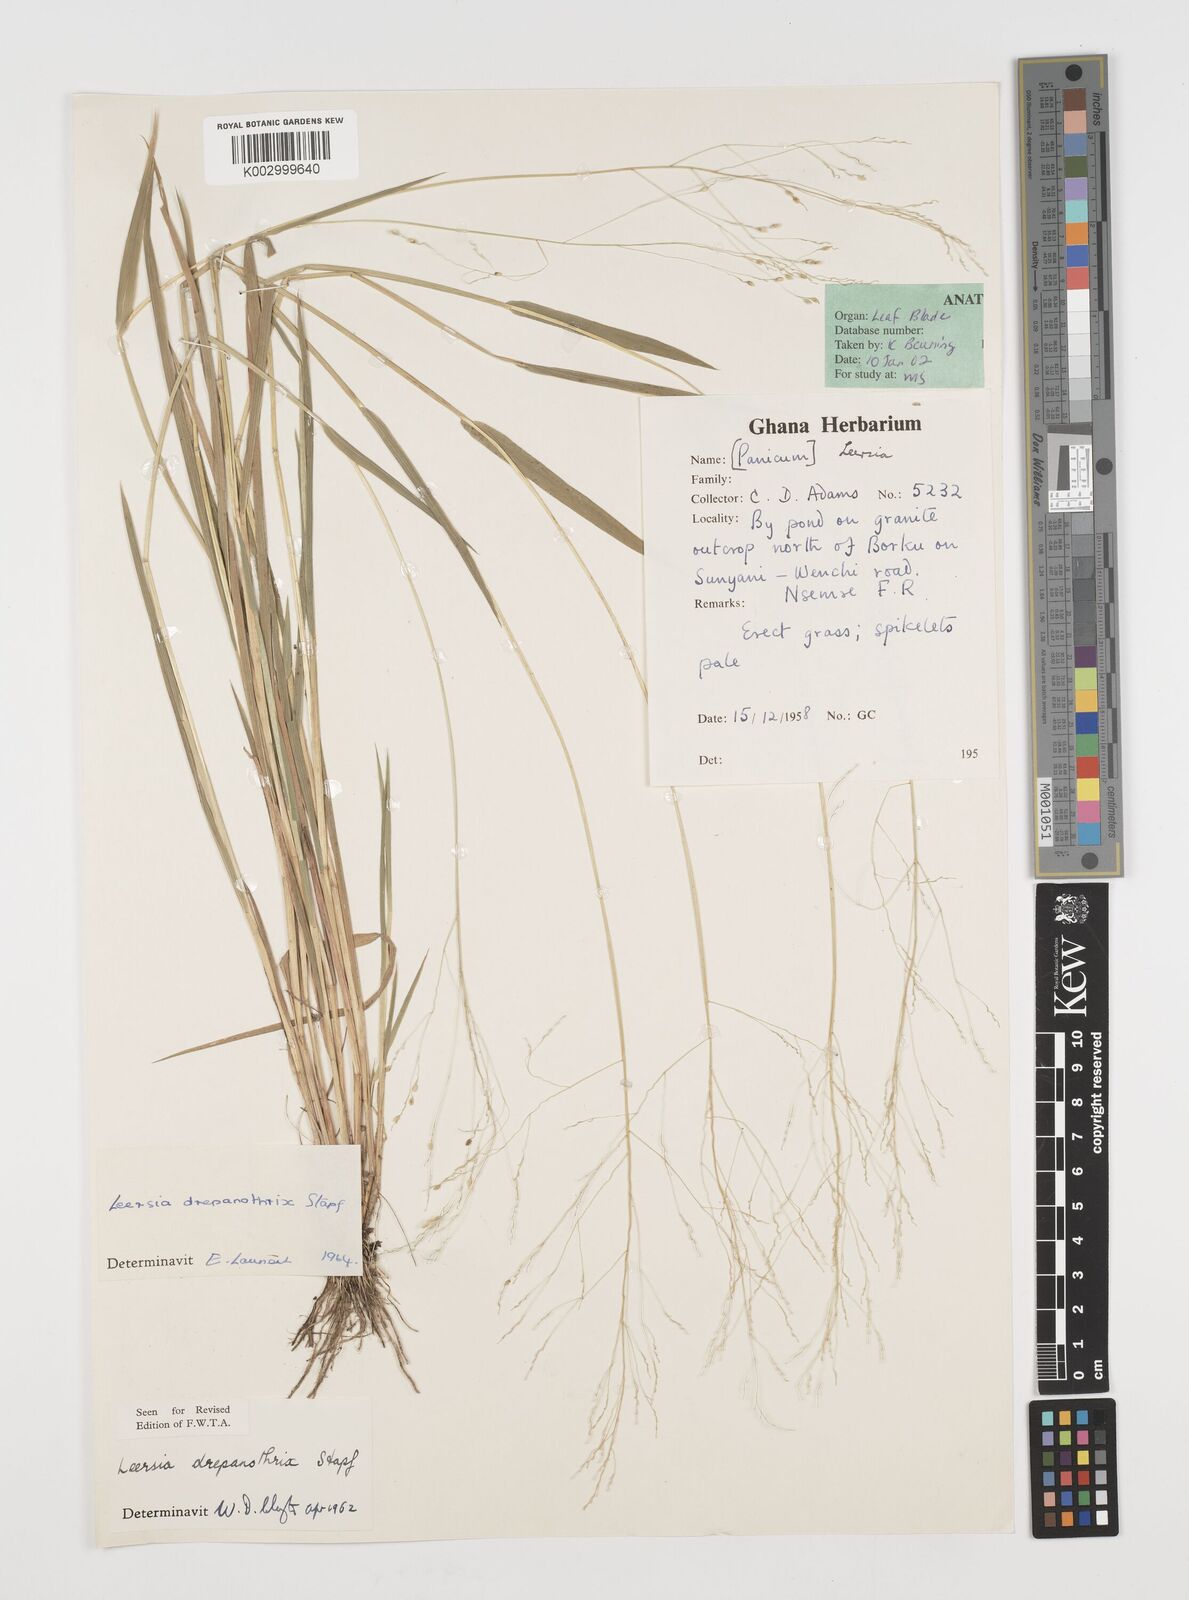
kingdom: Plantae
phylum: Tracheophyta
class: Liliopsida
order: Poales
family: Poaceae
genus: Leersia
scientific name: Leersia drepanothrix
